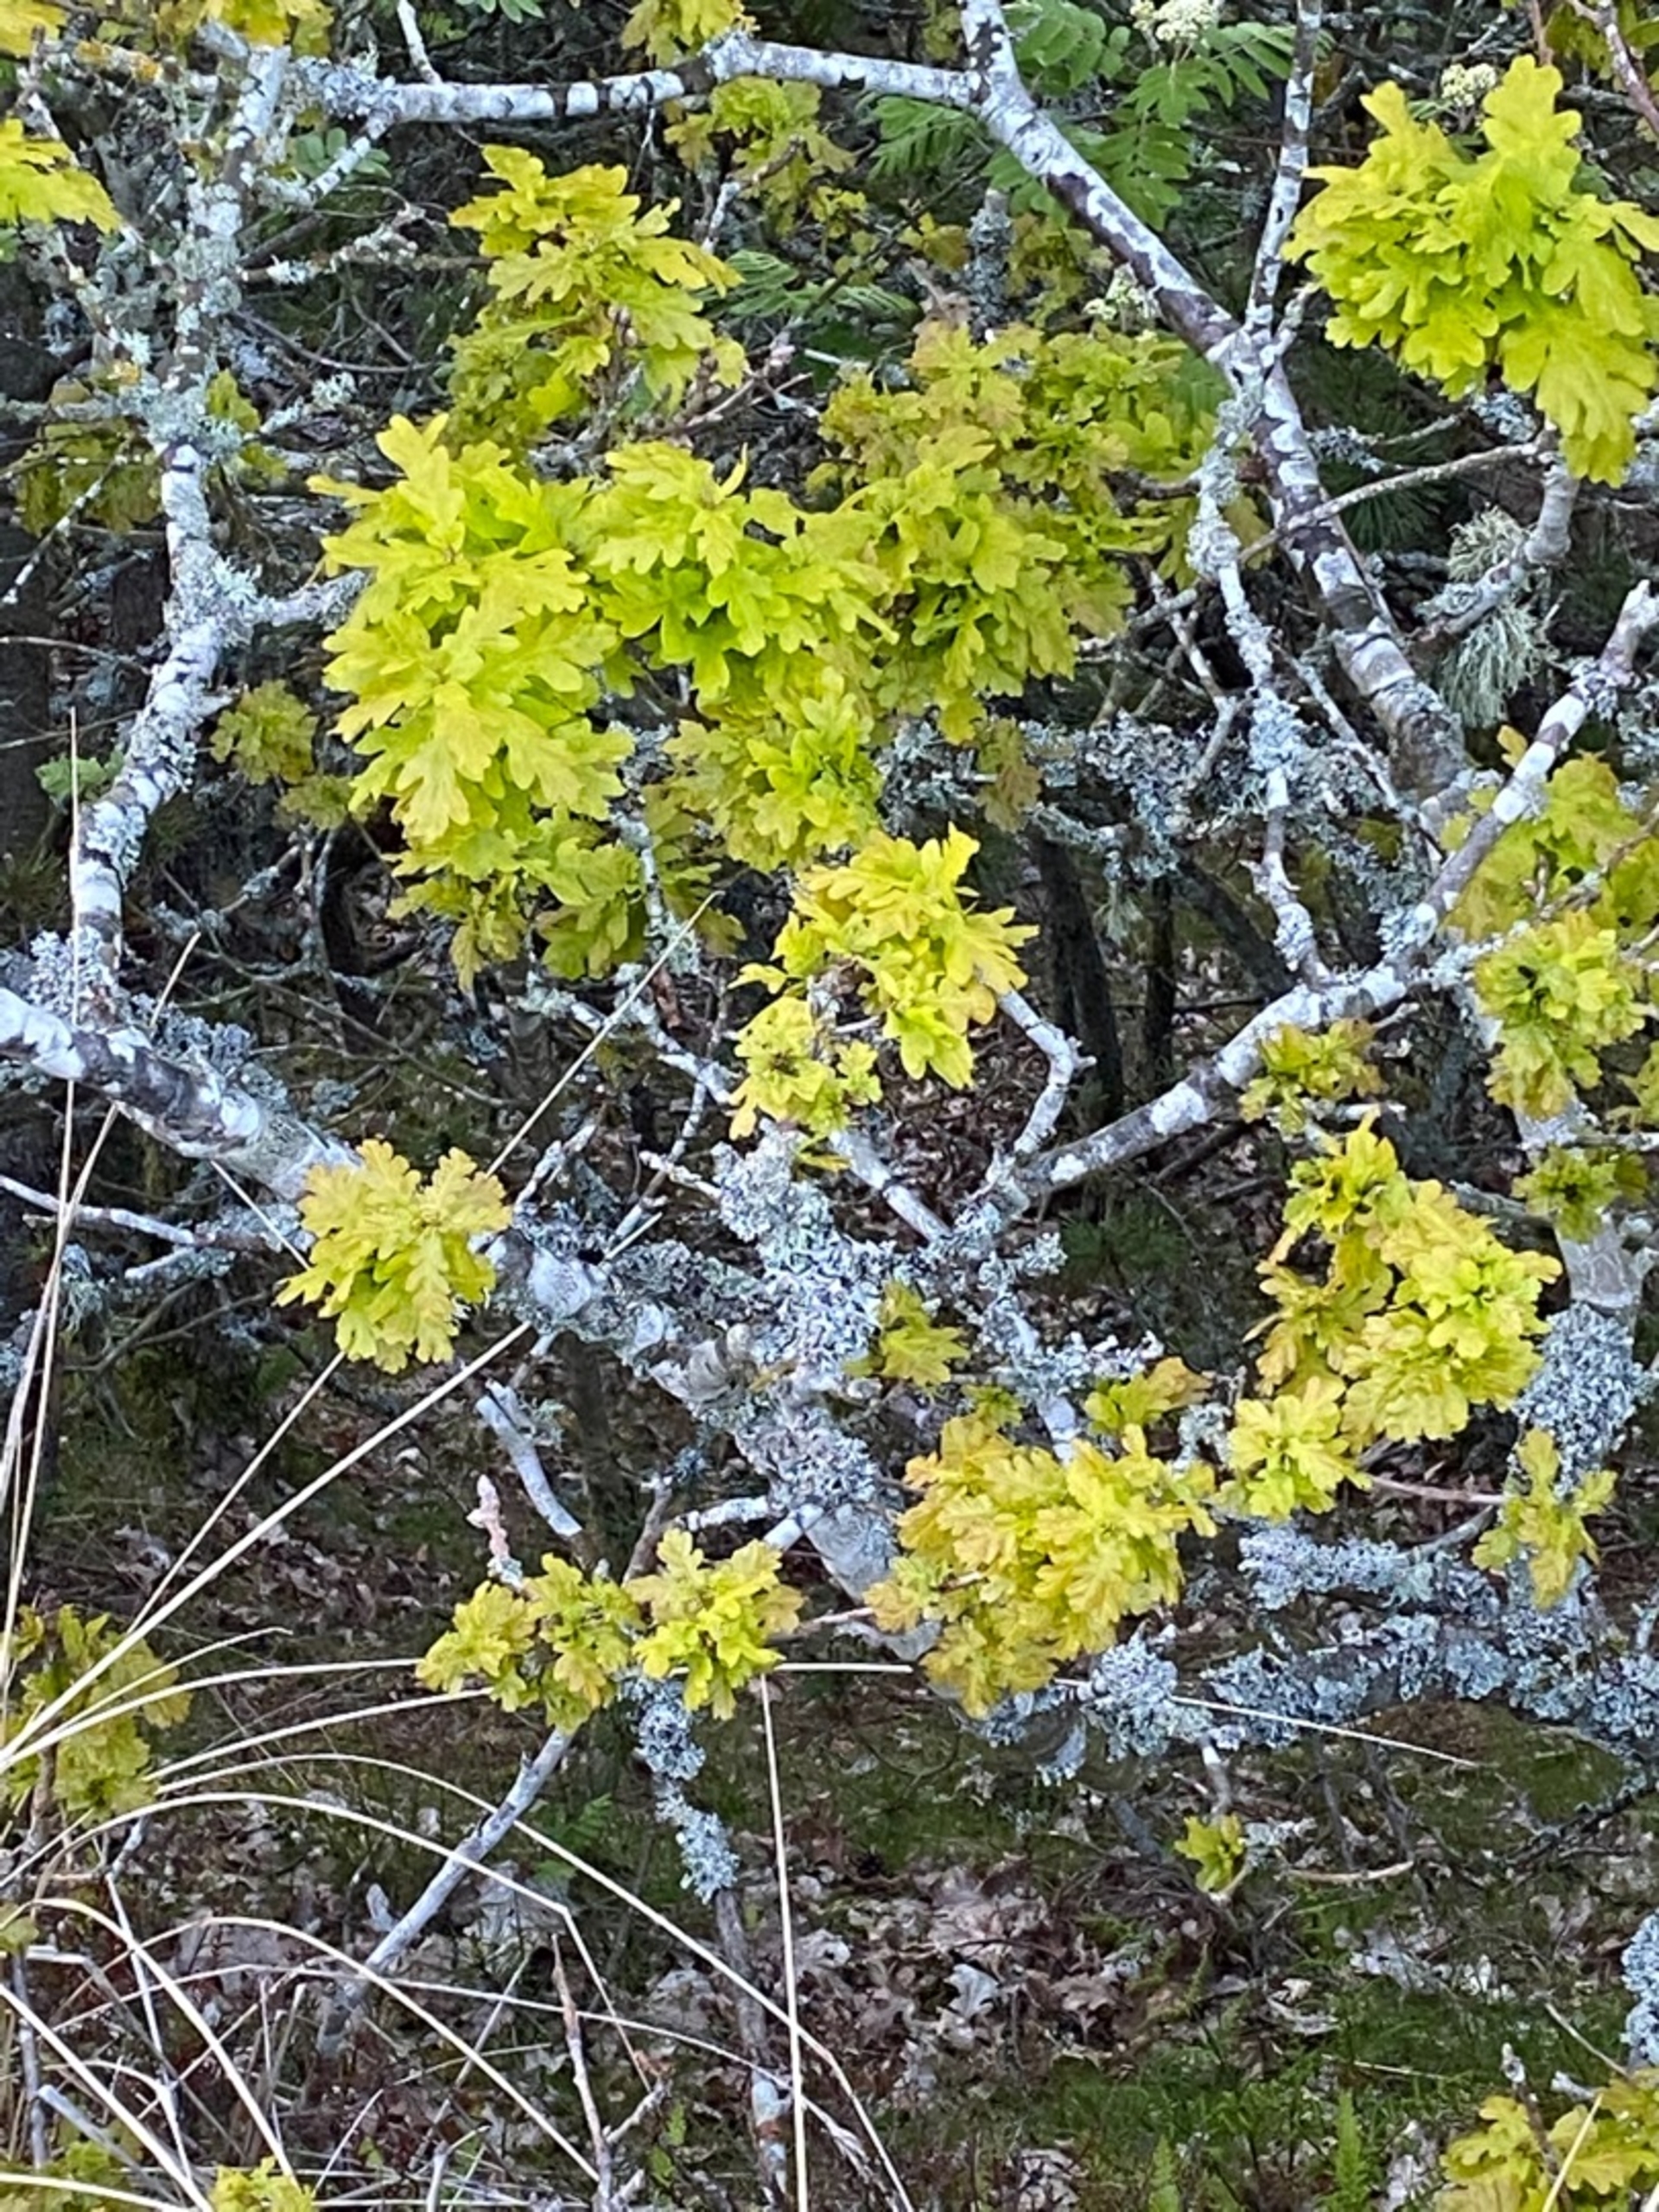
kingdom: Plantae
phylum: Tracheophyta
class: Magnoliopsida
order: Fagales
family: Fagaceae
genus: Quercus
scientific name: Quercus robur
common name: Stilk-eg/almindelig eg
